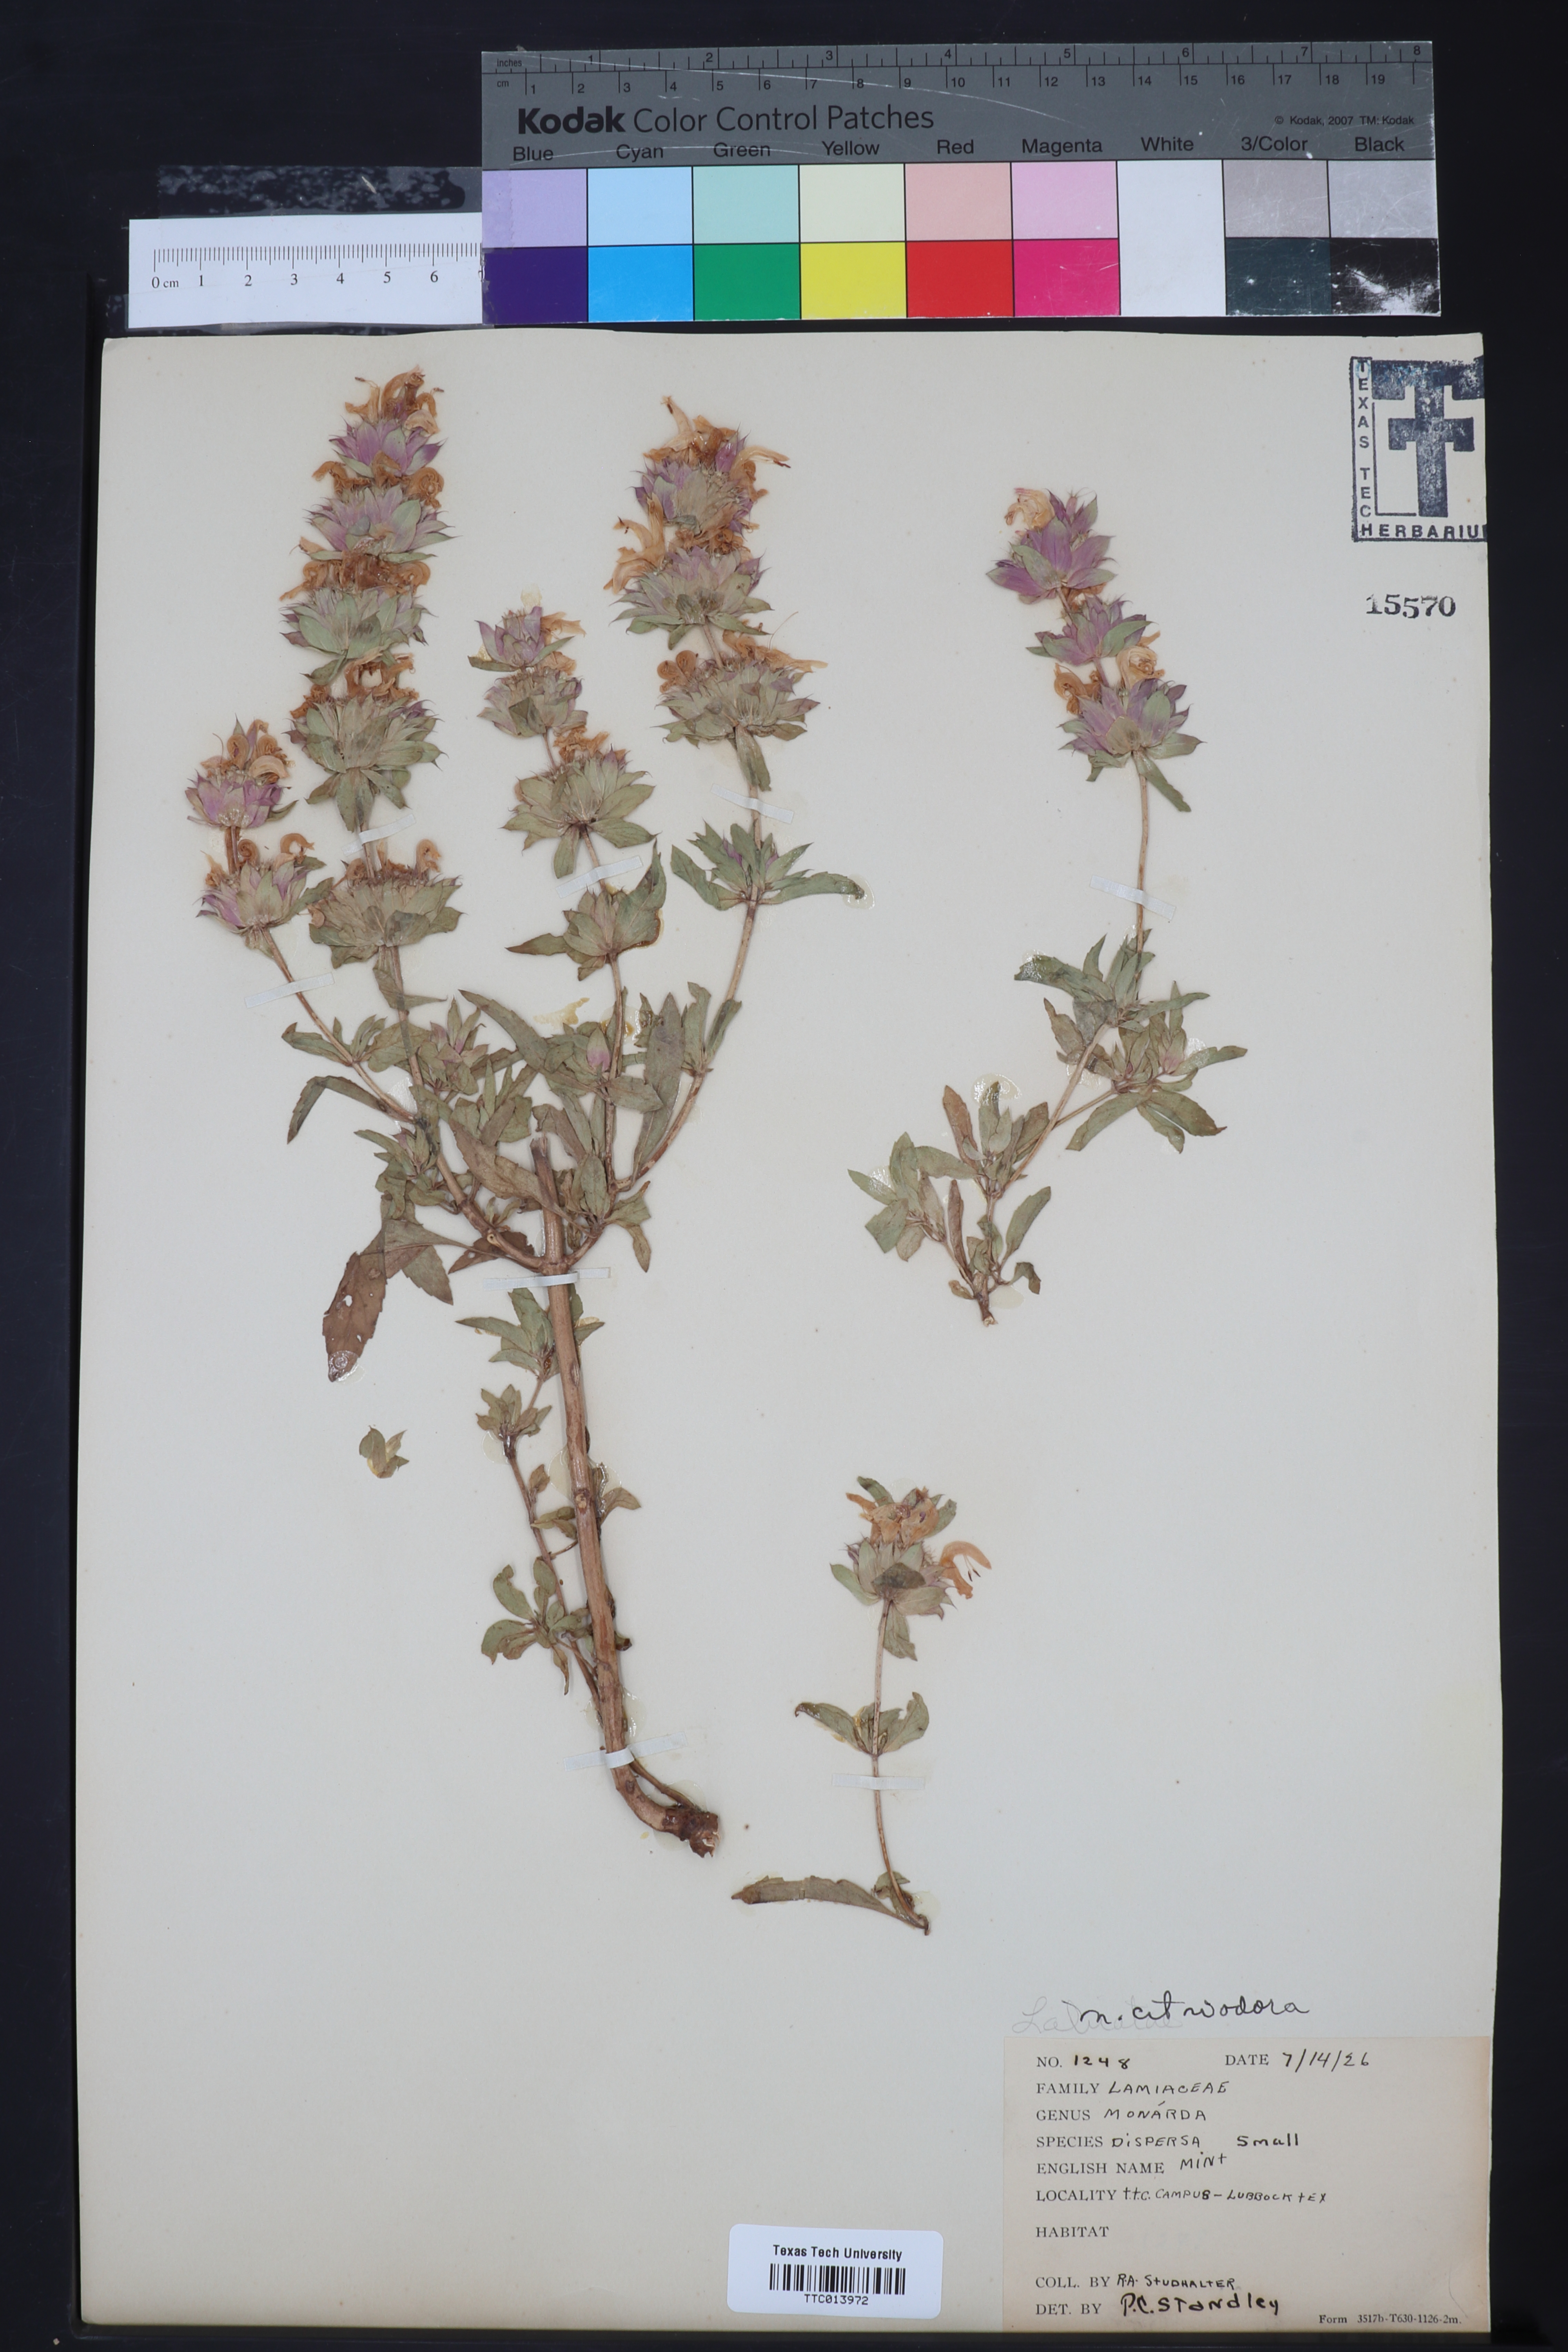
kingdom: Plantae
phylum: Tracheophyta
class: Magnoliopsida
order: Lamiales
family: Lamiaceae
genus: Monarda
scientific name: Monarda citriodora
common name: Lemon beebalm
